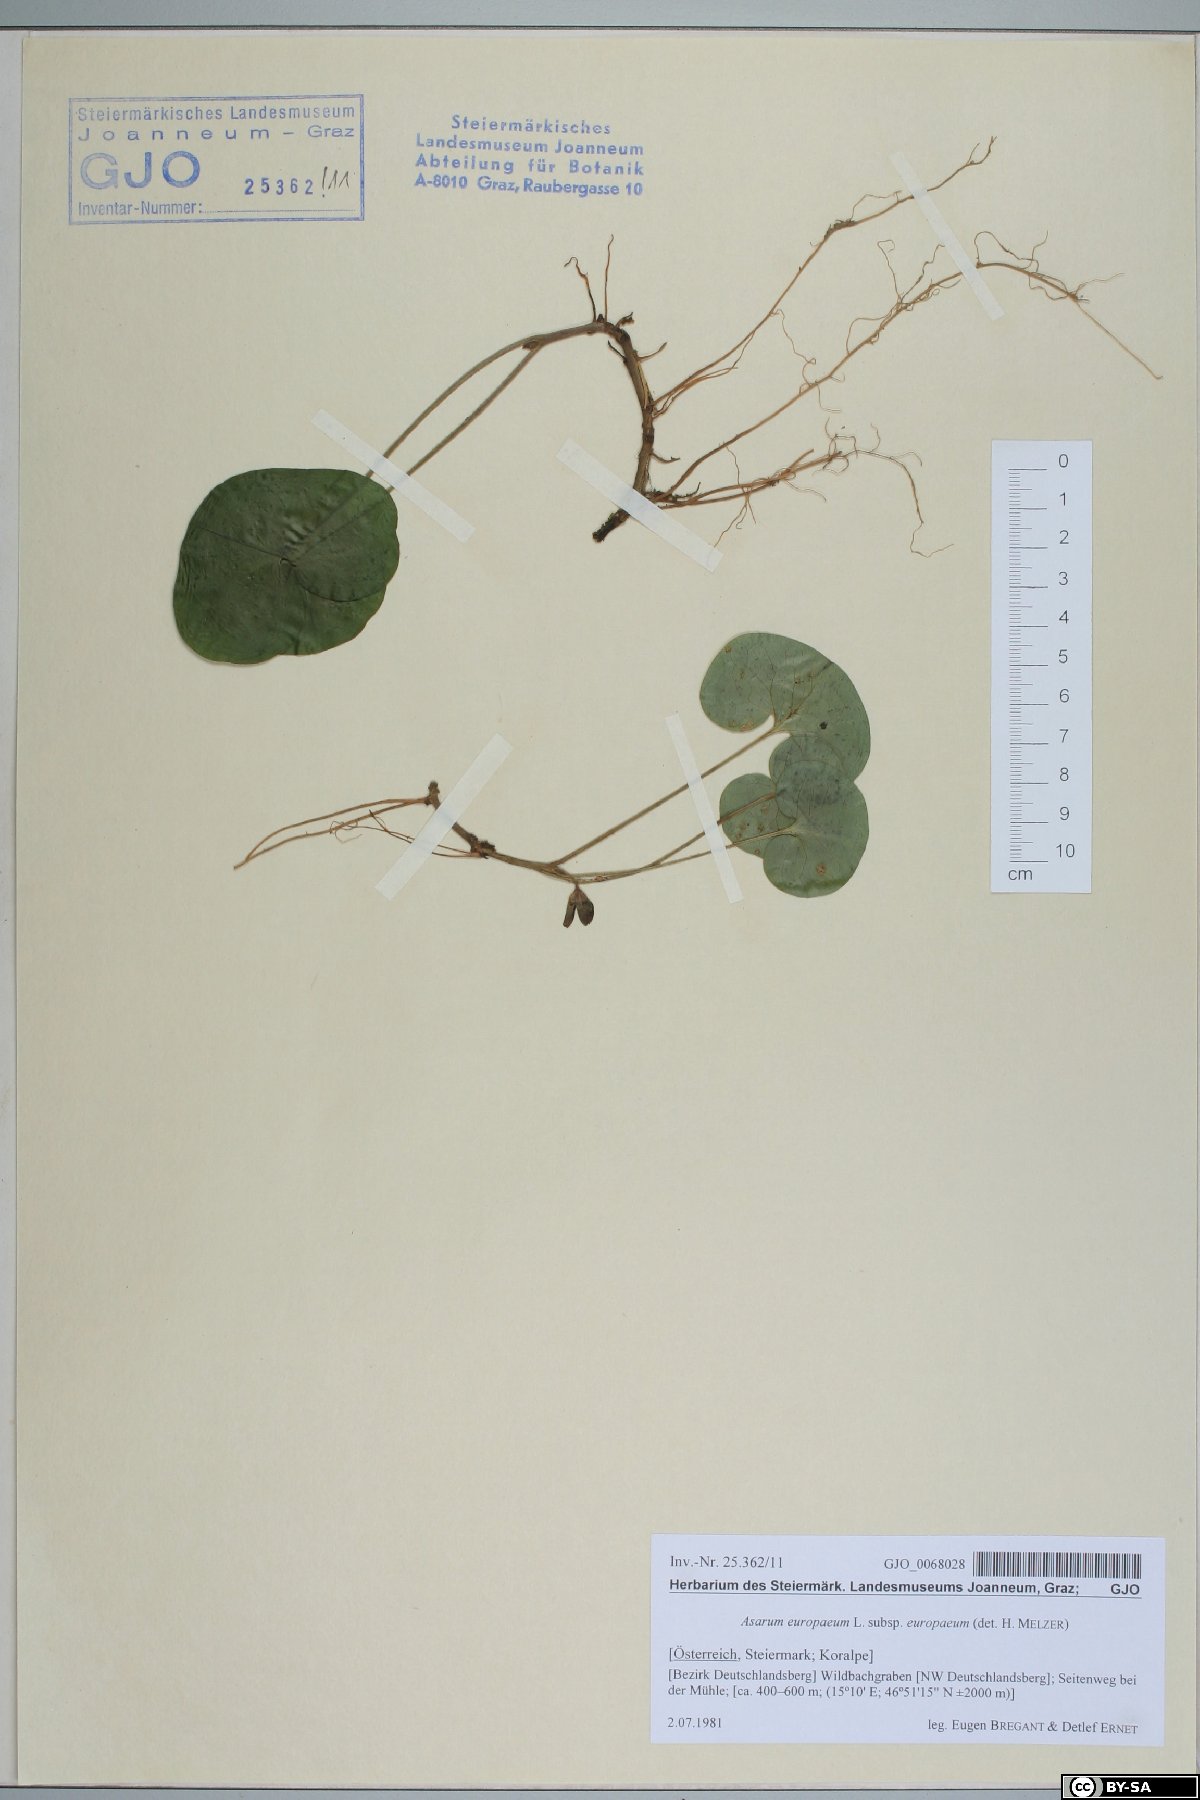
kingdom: Plantae
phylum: Tracheophyta
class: Magnoliopsida
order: Piperales
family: Aristolochiaceae
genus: Asarum
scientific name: Asarum europaeum
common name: Asarabacca
